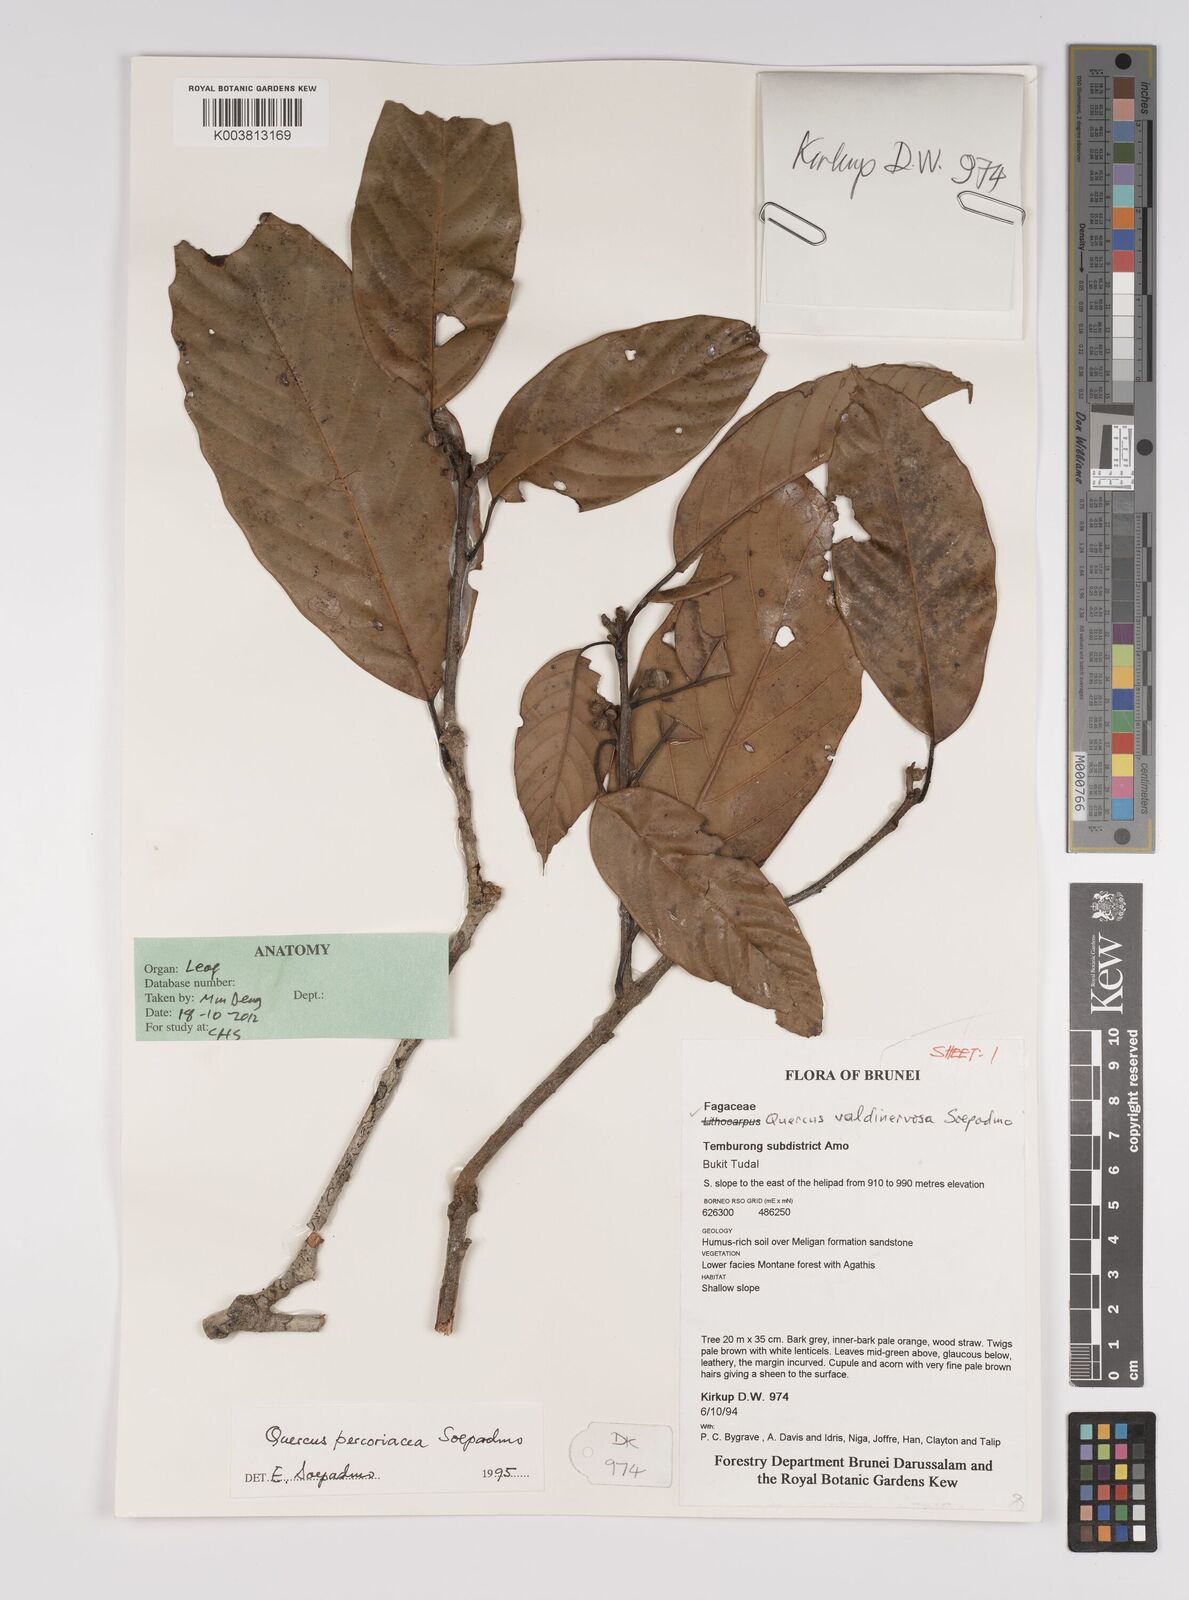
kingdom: Plantae
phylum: Tracheophyta
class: Magnoliopsida
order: Fagales
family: Fagaceae
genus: Quercus
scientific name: Quercus percoriacea
